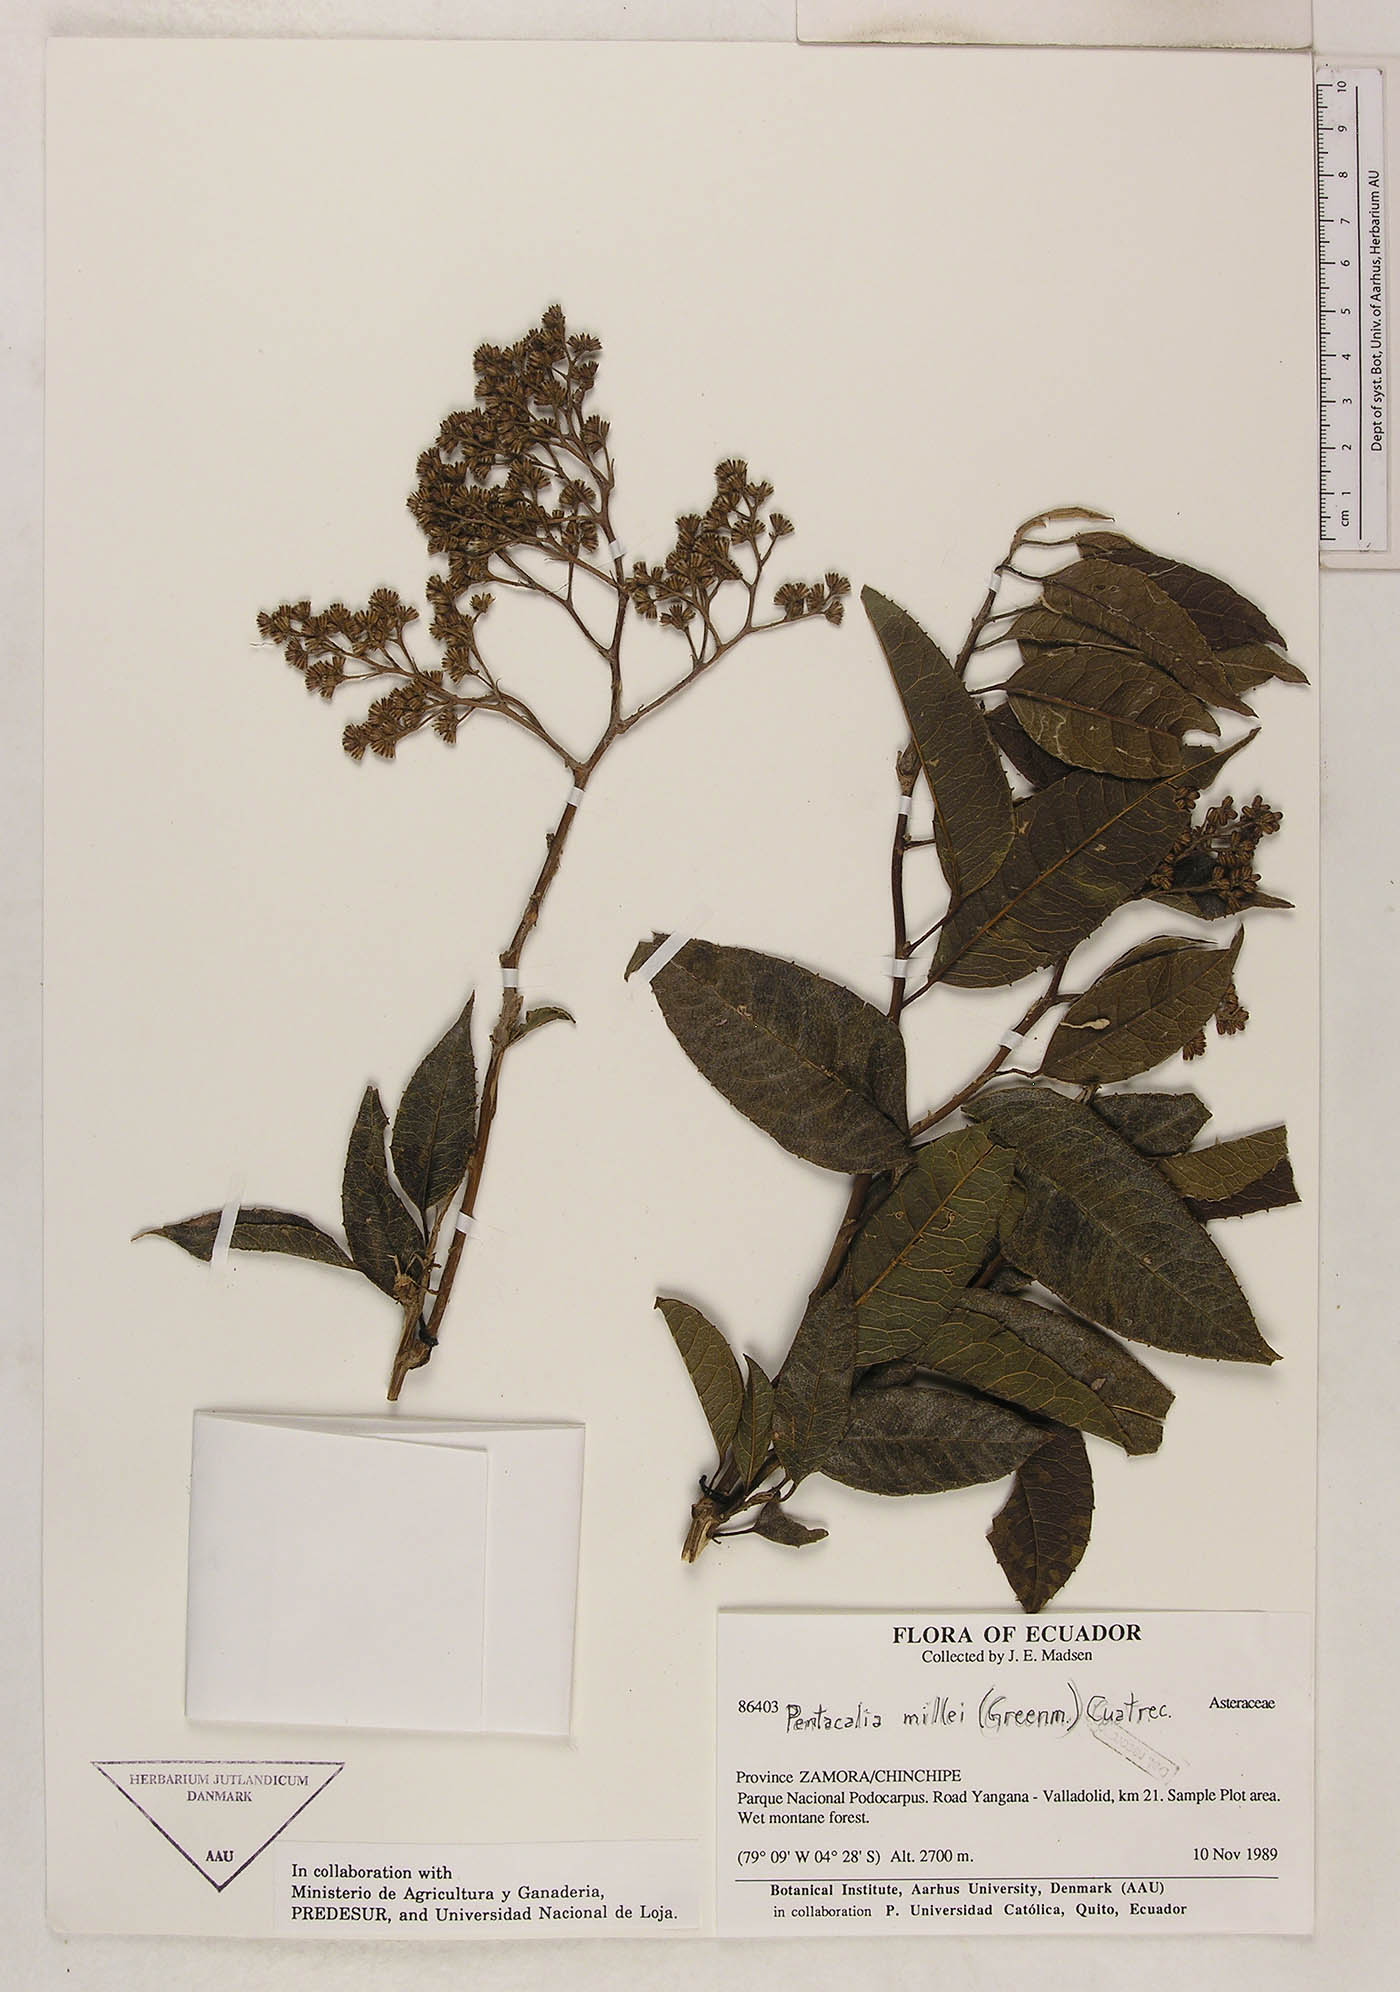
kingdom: Plantae
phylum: Tracheophyta
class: Magnoliopsida
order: Asterales
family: Asteraceae
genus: Pentacalia
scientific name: Pentacalia millei
